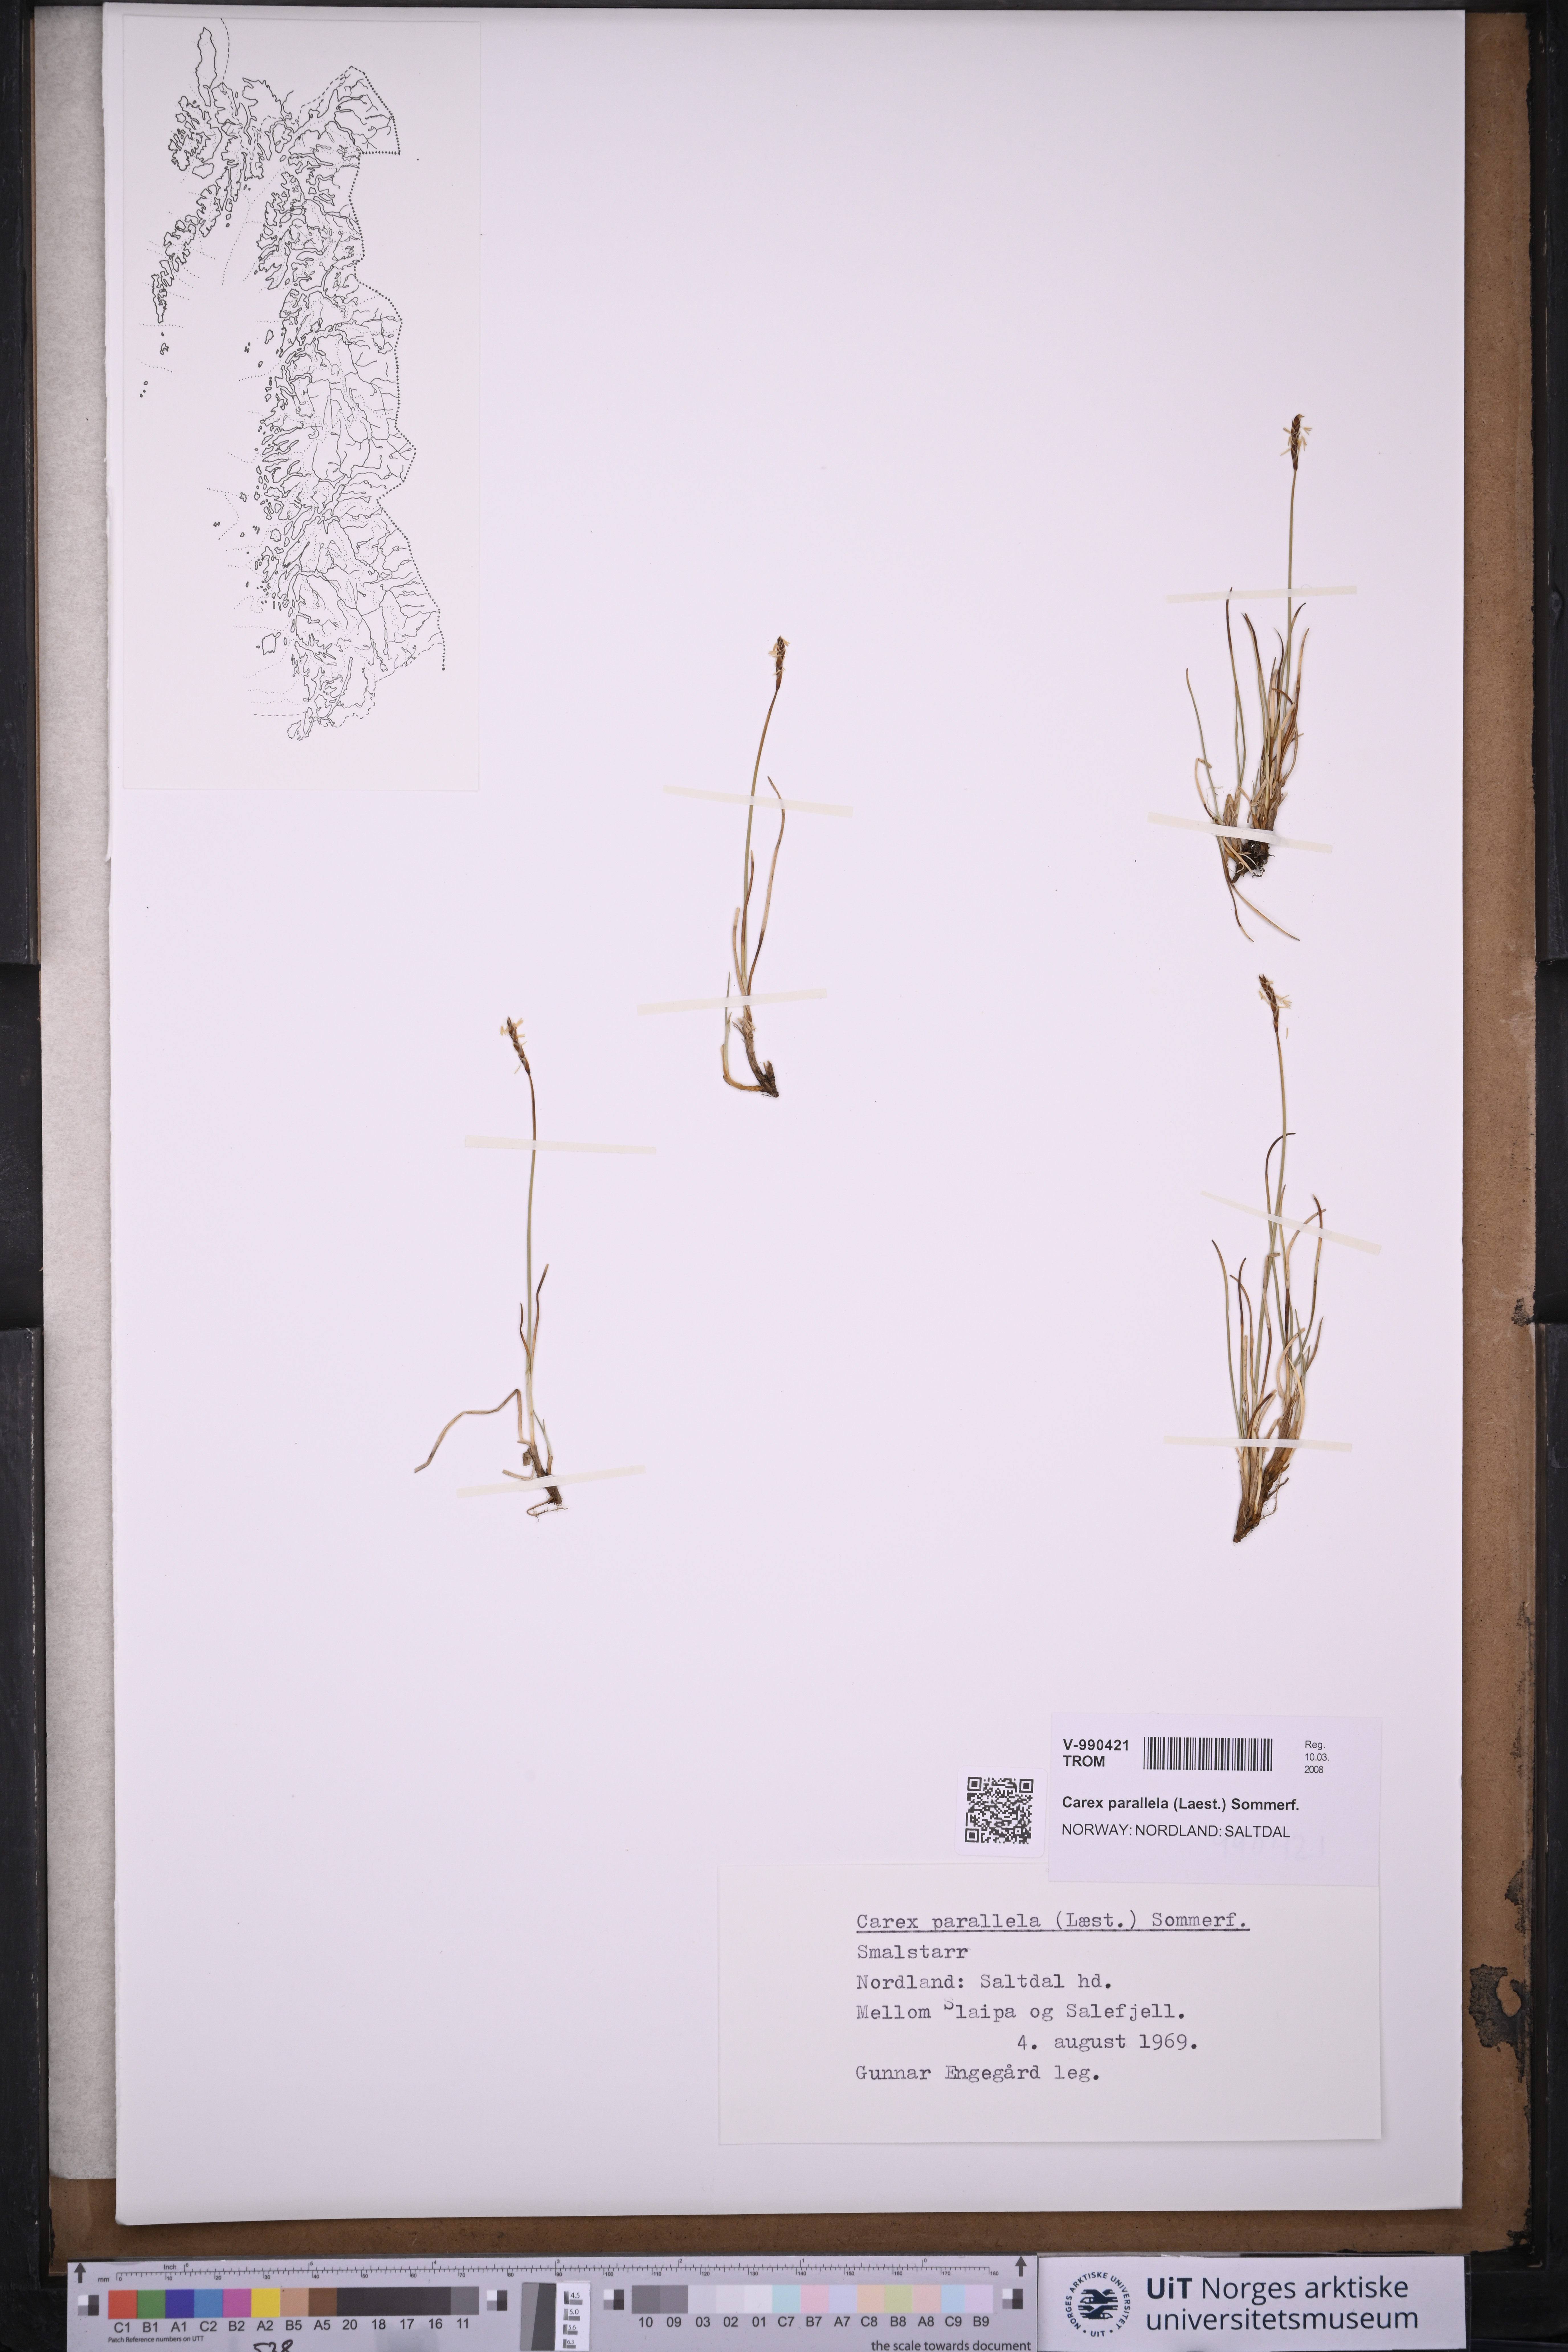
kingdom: Plantae
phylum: Tracheophyta
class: Liliopsida
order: Poales
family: Cyperaceae
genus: Carex
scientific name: Carex parallela
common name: Parallel sedge
